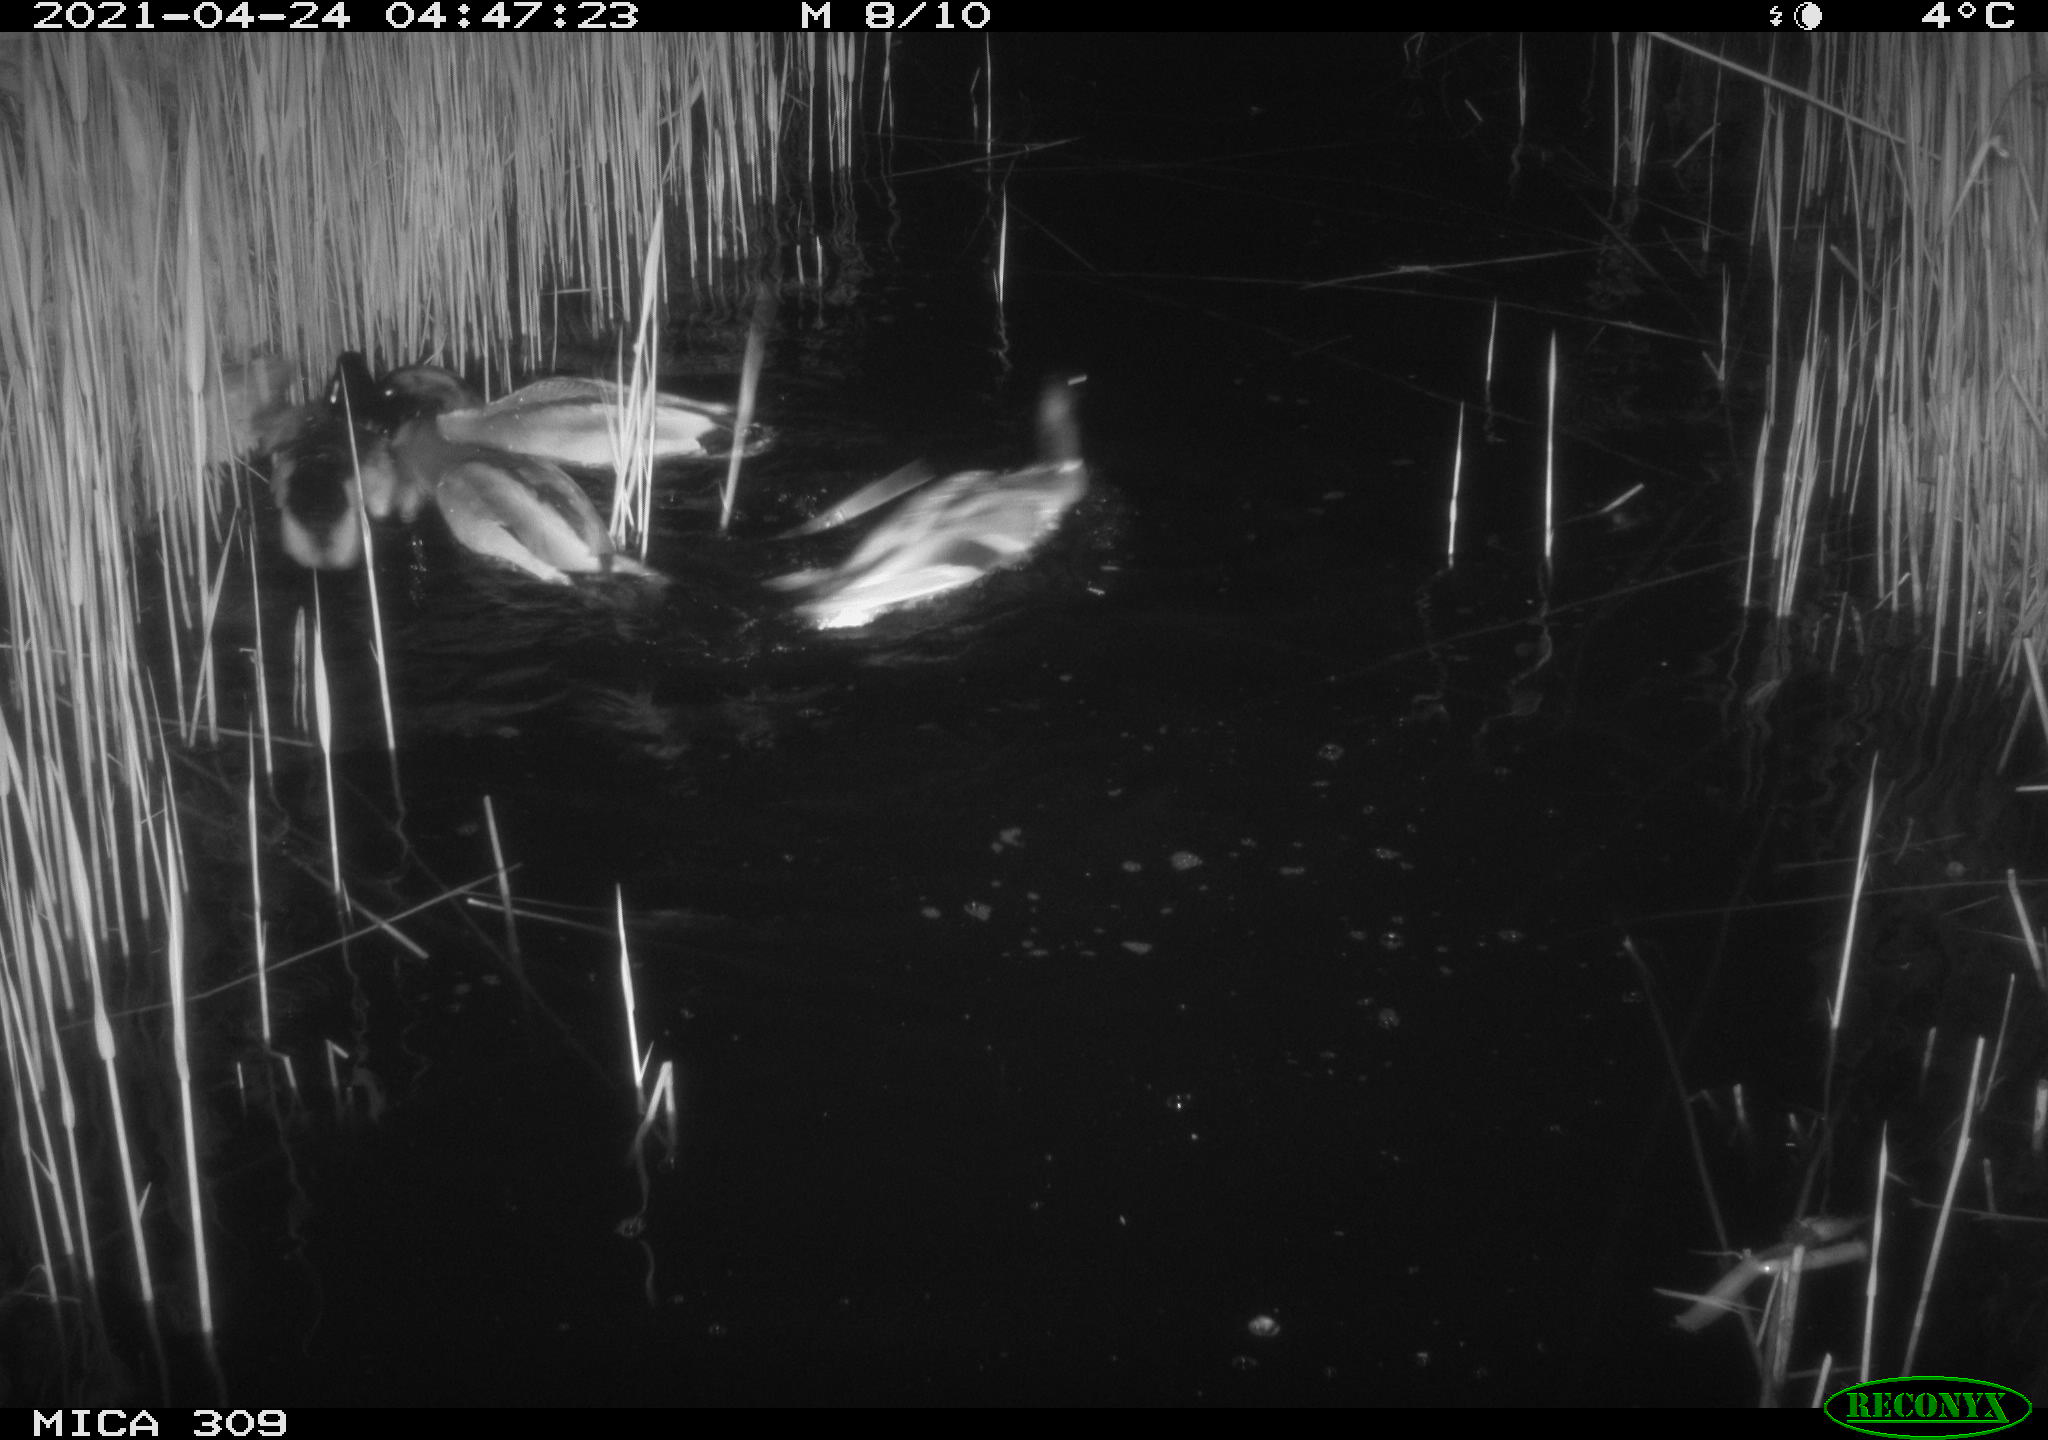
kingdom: Animalia
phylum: Chordata
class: Aves
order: Anseriformes
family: Anatidae
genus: Anas
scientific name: Anas platyrhynchos
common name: Mallard
